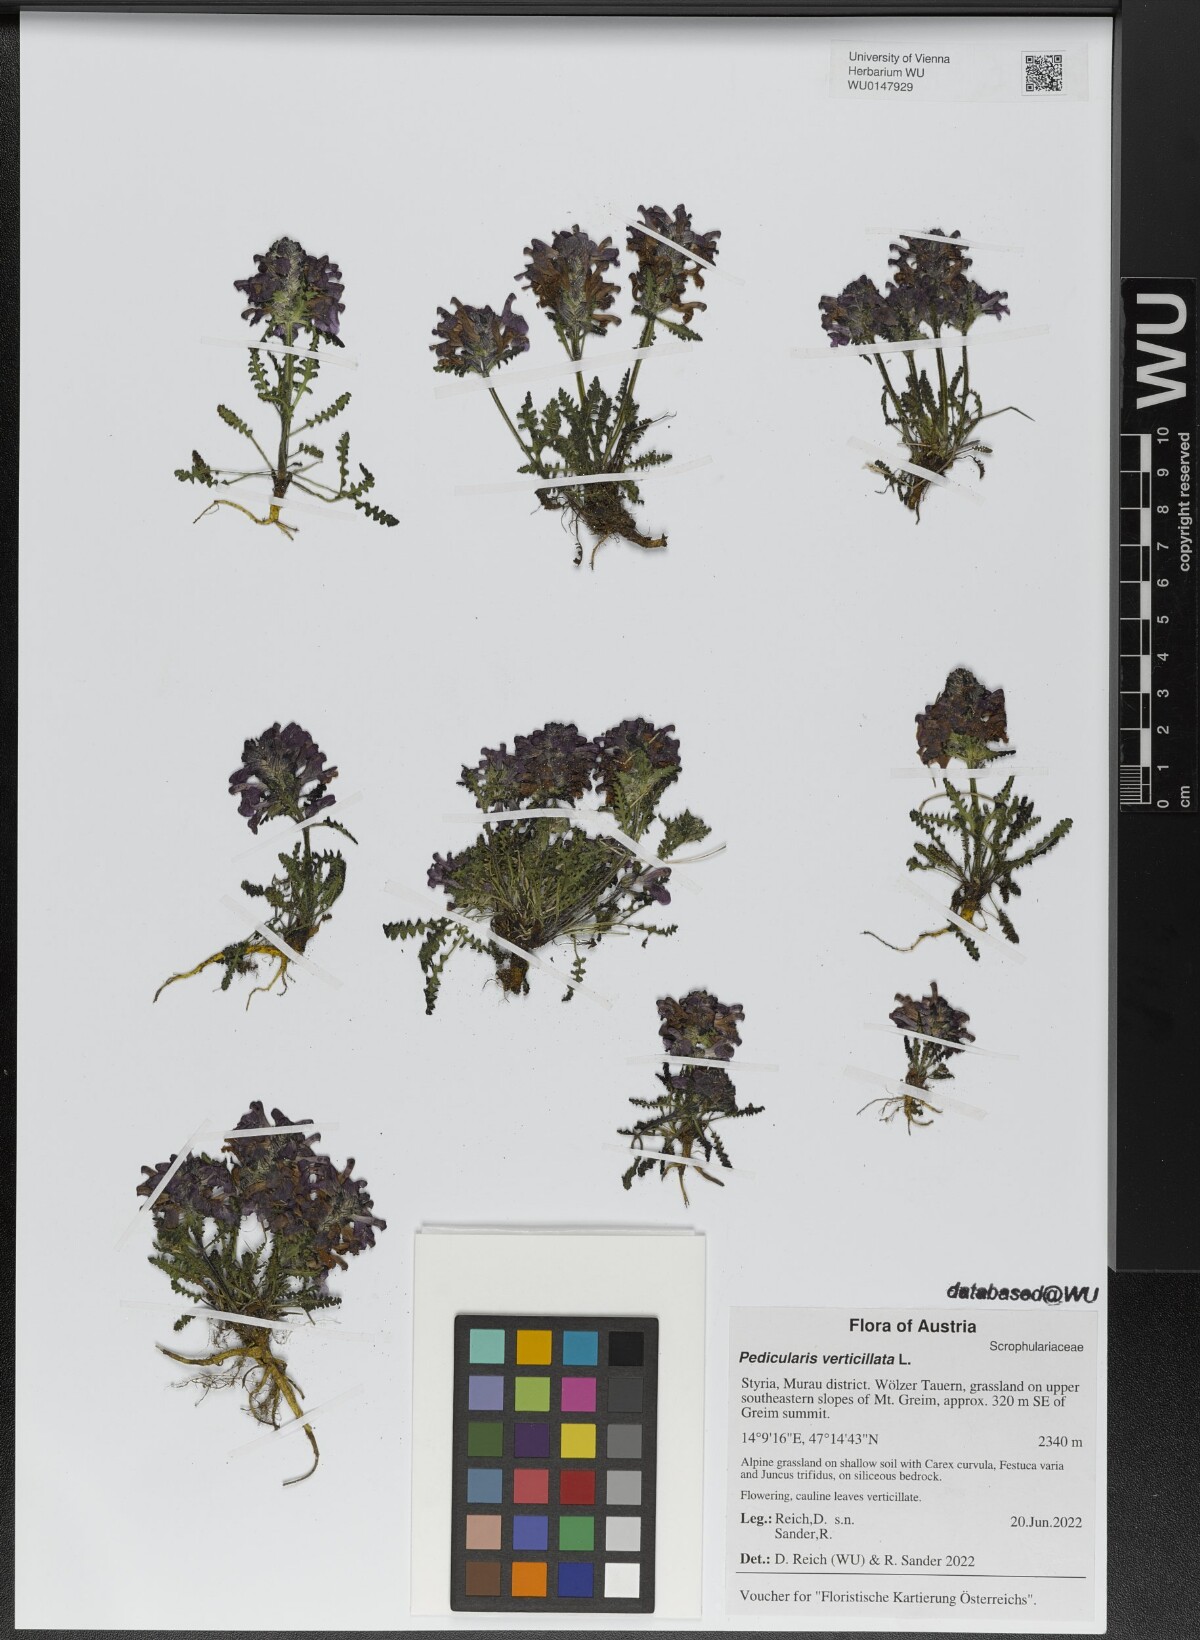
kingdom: Plantae
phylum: Tracheophyta
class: Magnoliopsida
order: Lamiales
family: Orobanchaceae
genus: Pedicularis
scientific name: Pedicularis verticillata
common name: Whorled lousewort
